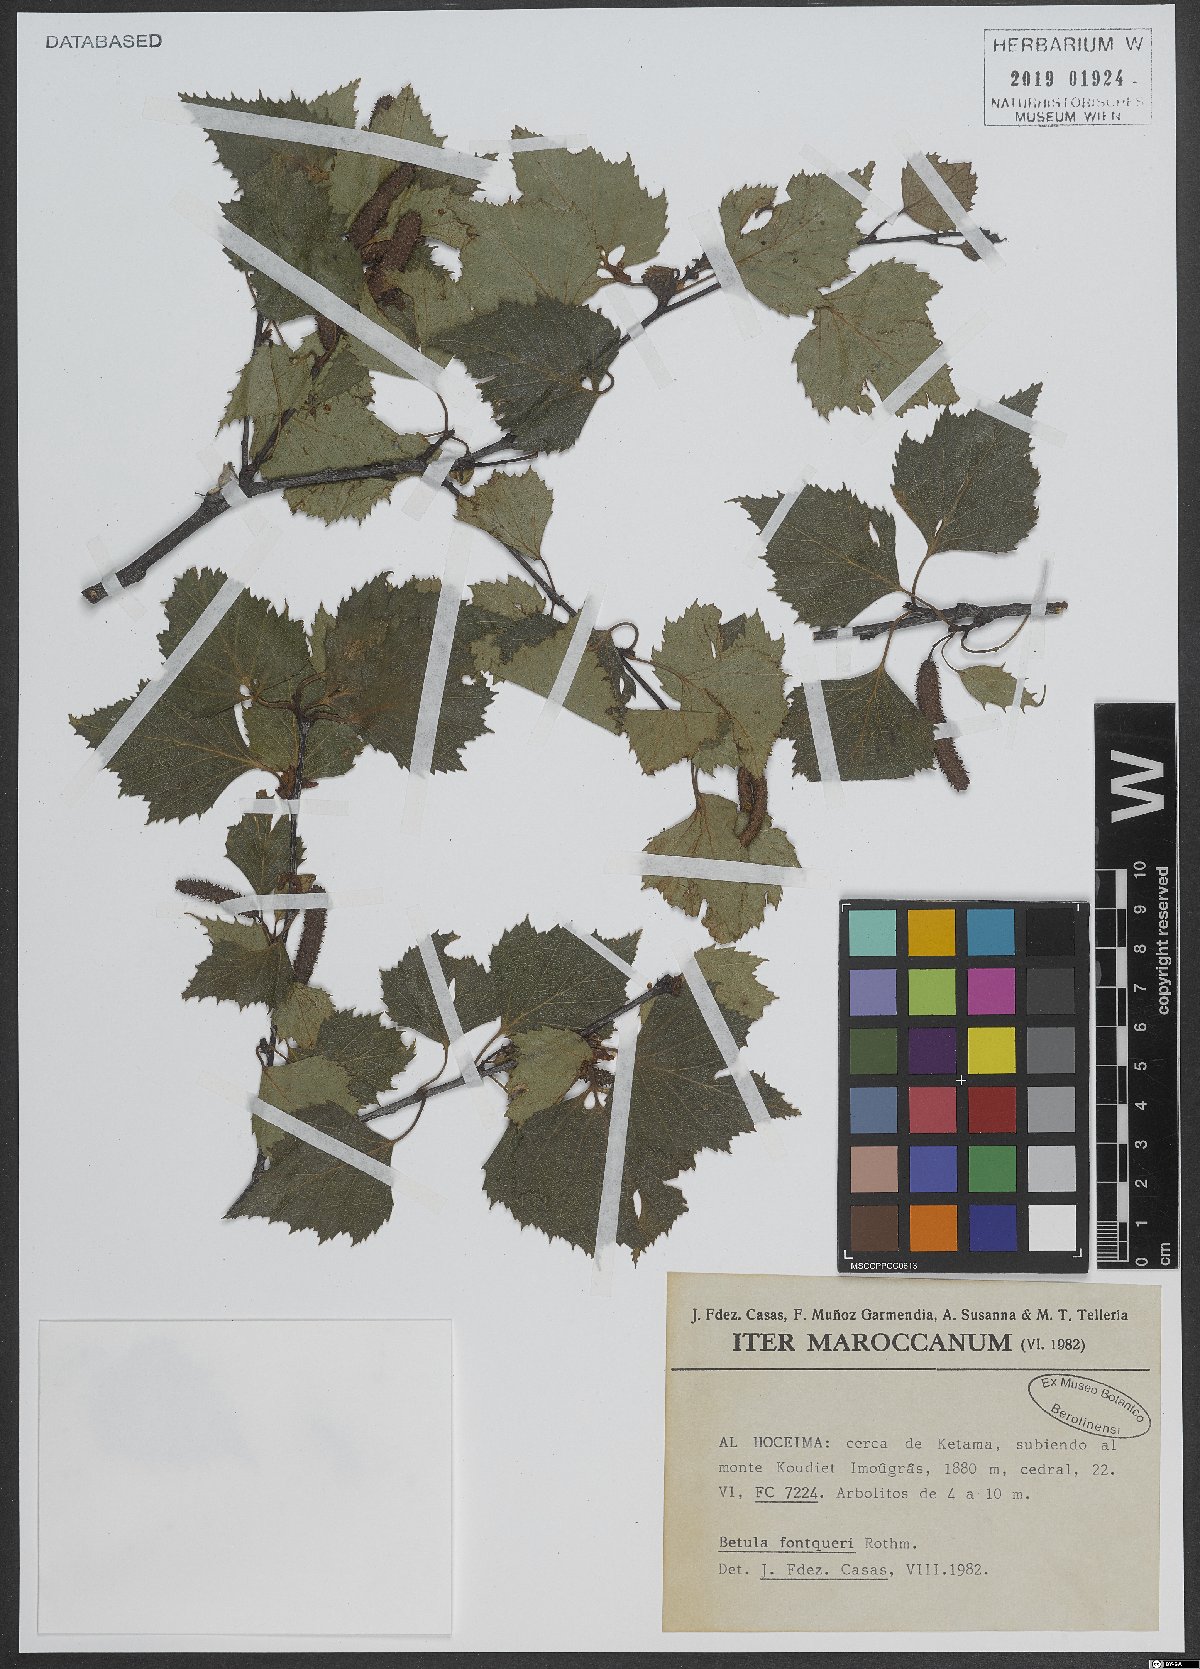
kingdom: Plantae
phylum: Tracheophyta
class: Magnoliopsida
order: Fagales
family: Betulaceae
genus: Betula
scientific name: Betula pendula
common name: Silver birch
